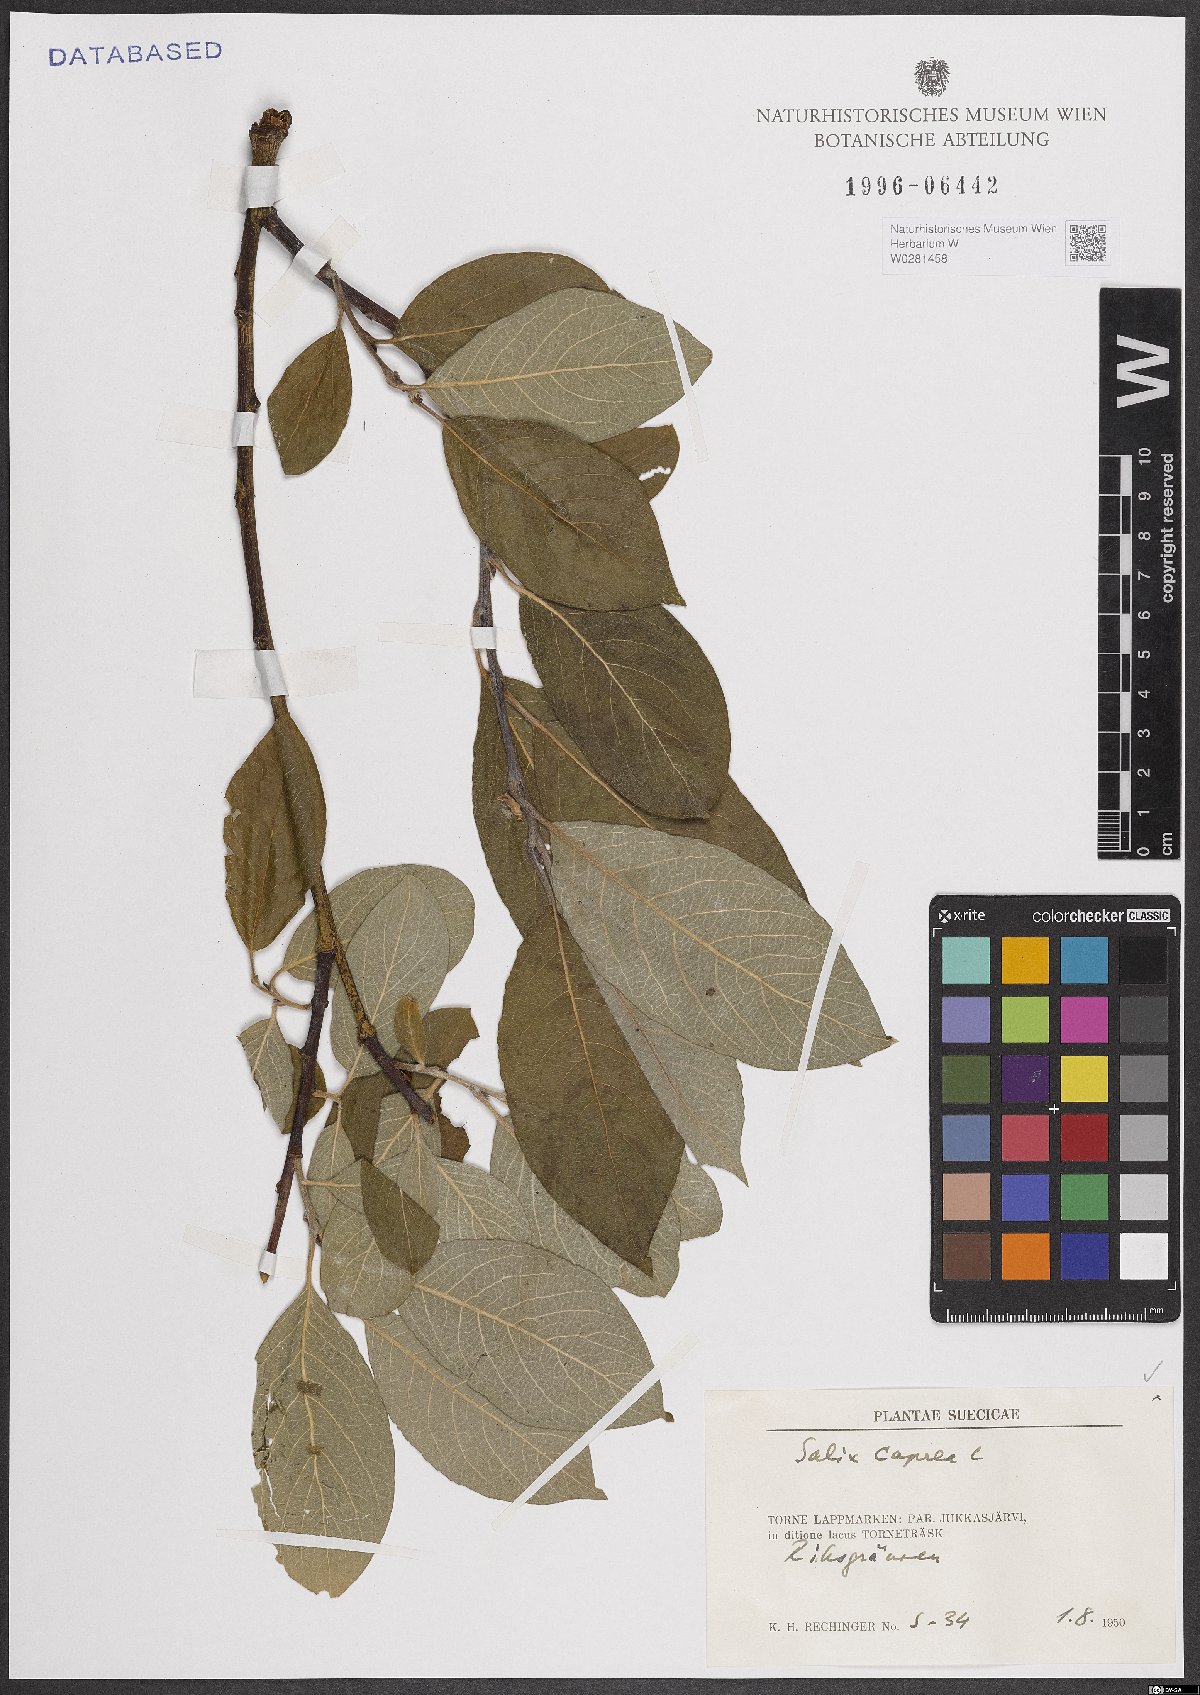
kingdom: Plantae
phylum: Tracheophyta
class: Magnoliopsida
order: Malpighiales
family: Salicaceae
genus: Salix
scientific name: Salix caprea
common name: Goat willow
